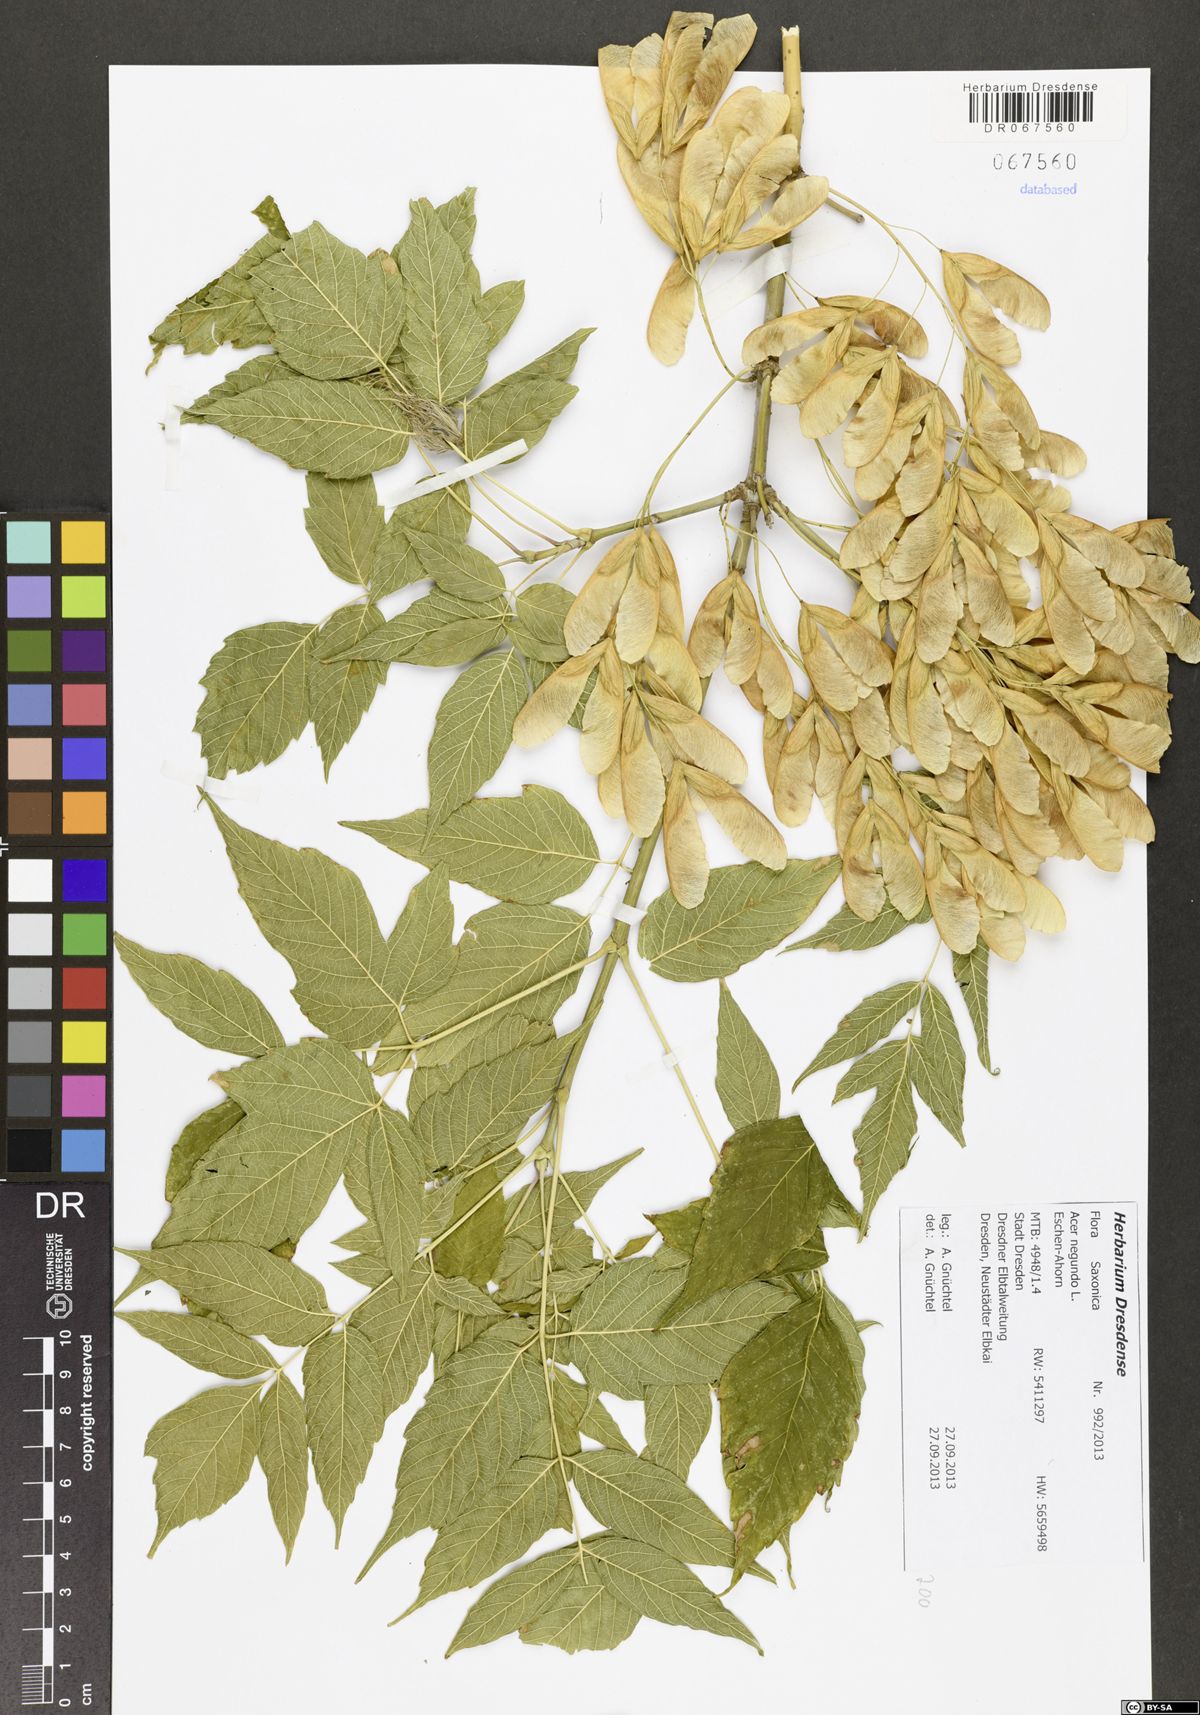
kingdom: Plantae
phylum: Tracheophyta
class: Magnoliopsida
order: Sapindales
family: Sapindaceae
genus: Acer
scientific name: Acer negundo
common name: Ashleaf maple
